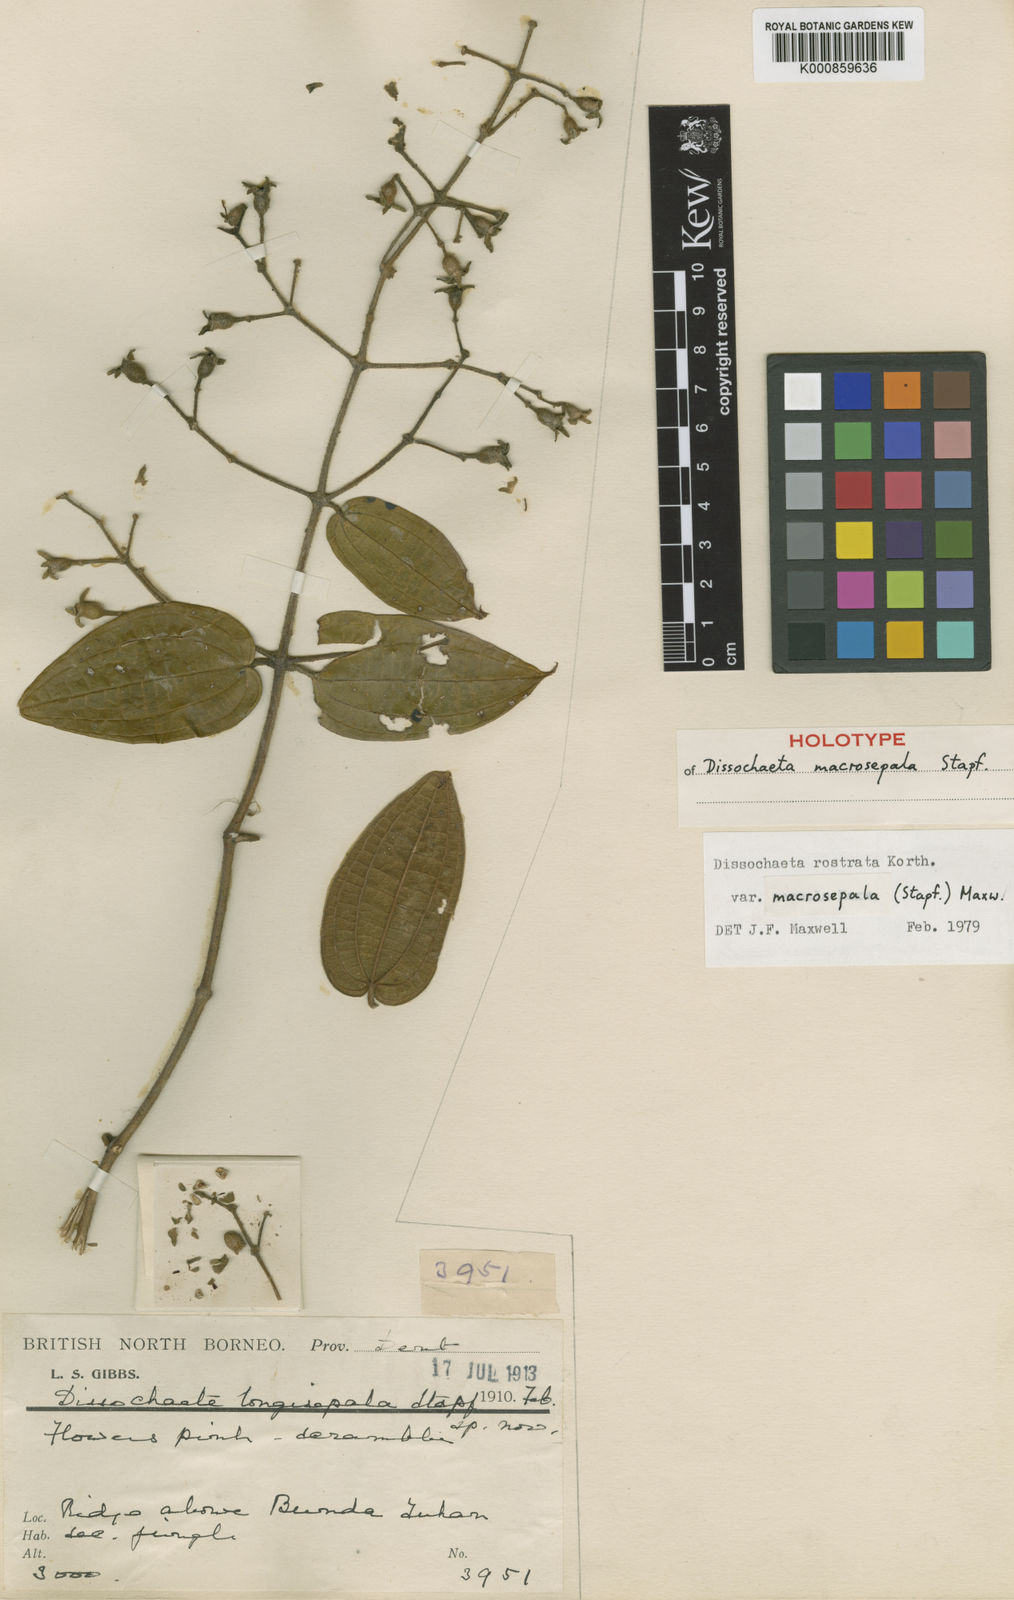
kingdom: Plantae
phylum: Tracheophyta
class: Magnoliopsida
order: Myrtales
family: Melastomataceae
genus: Macrolenes
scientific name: Macrolenes macrosepala
